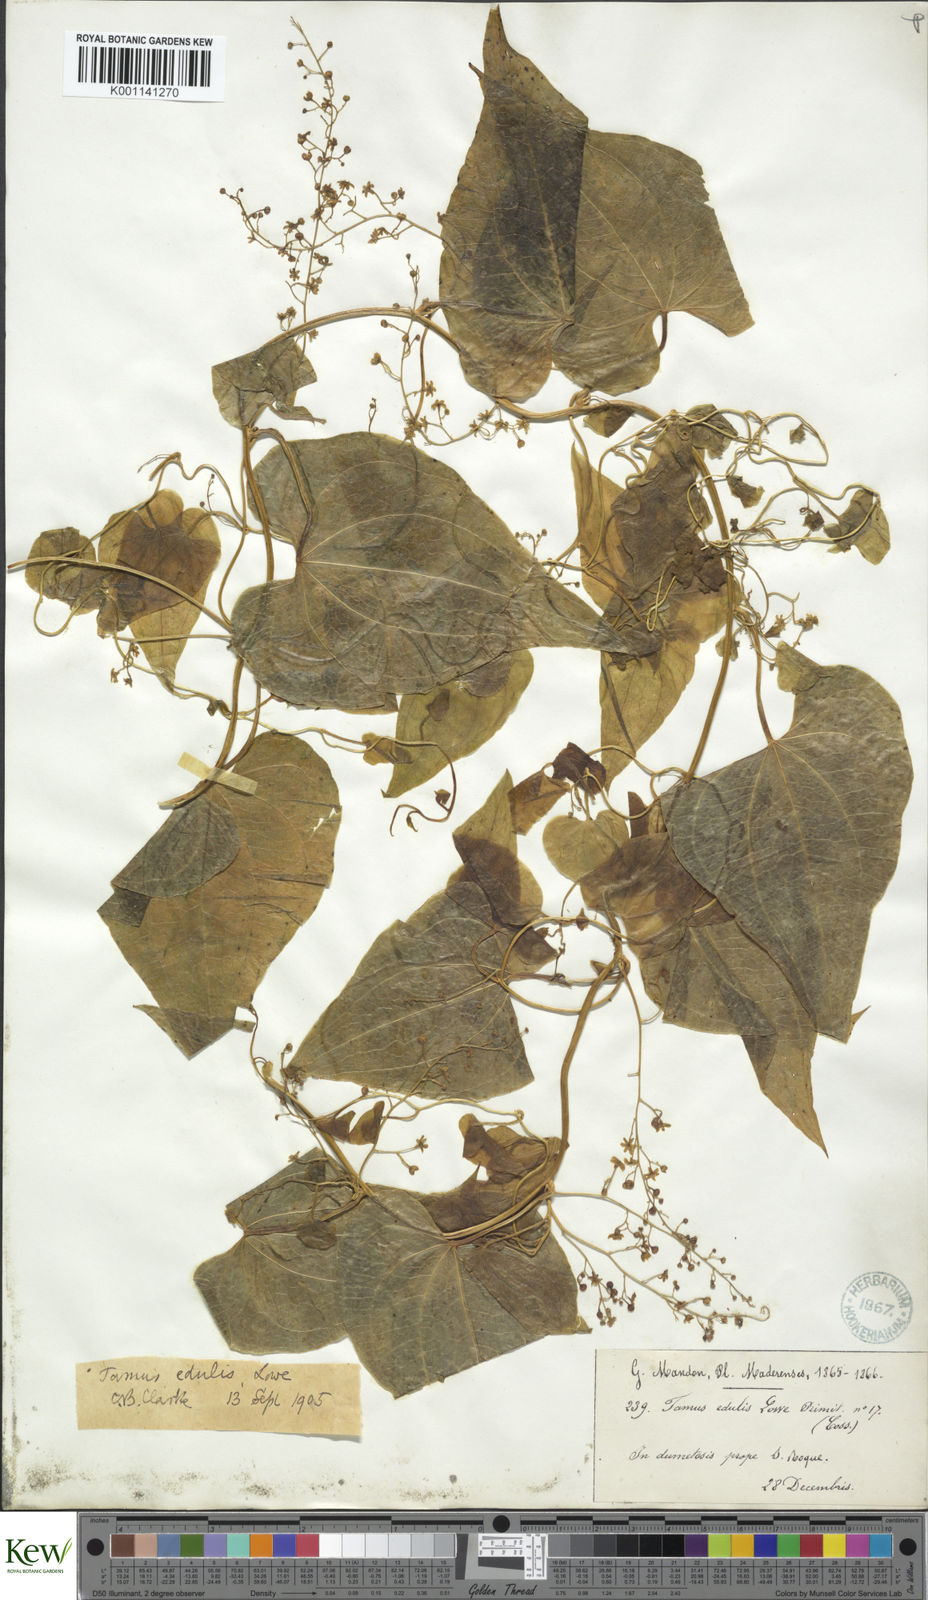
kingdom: Plantae
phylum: Tracheophyta
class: Liliopsida
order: Dioscoreales
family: Dioscoreaceae
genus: Dioscorea
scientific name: Dioscorea
